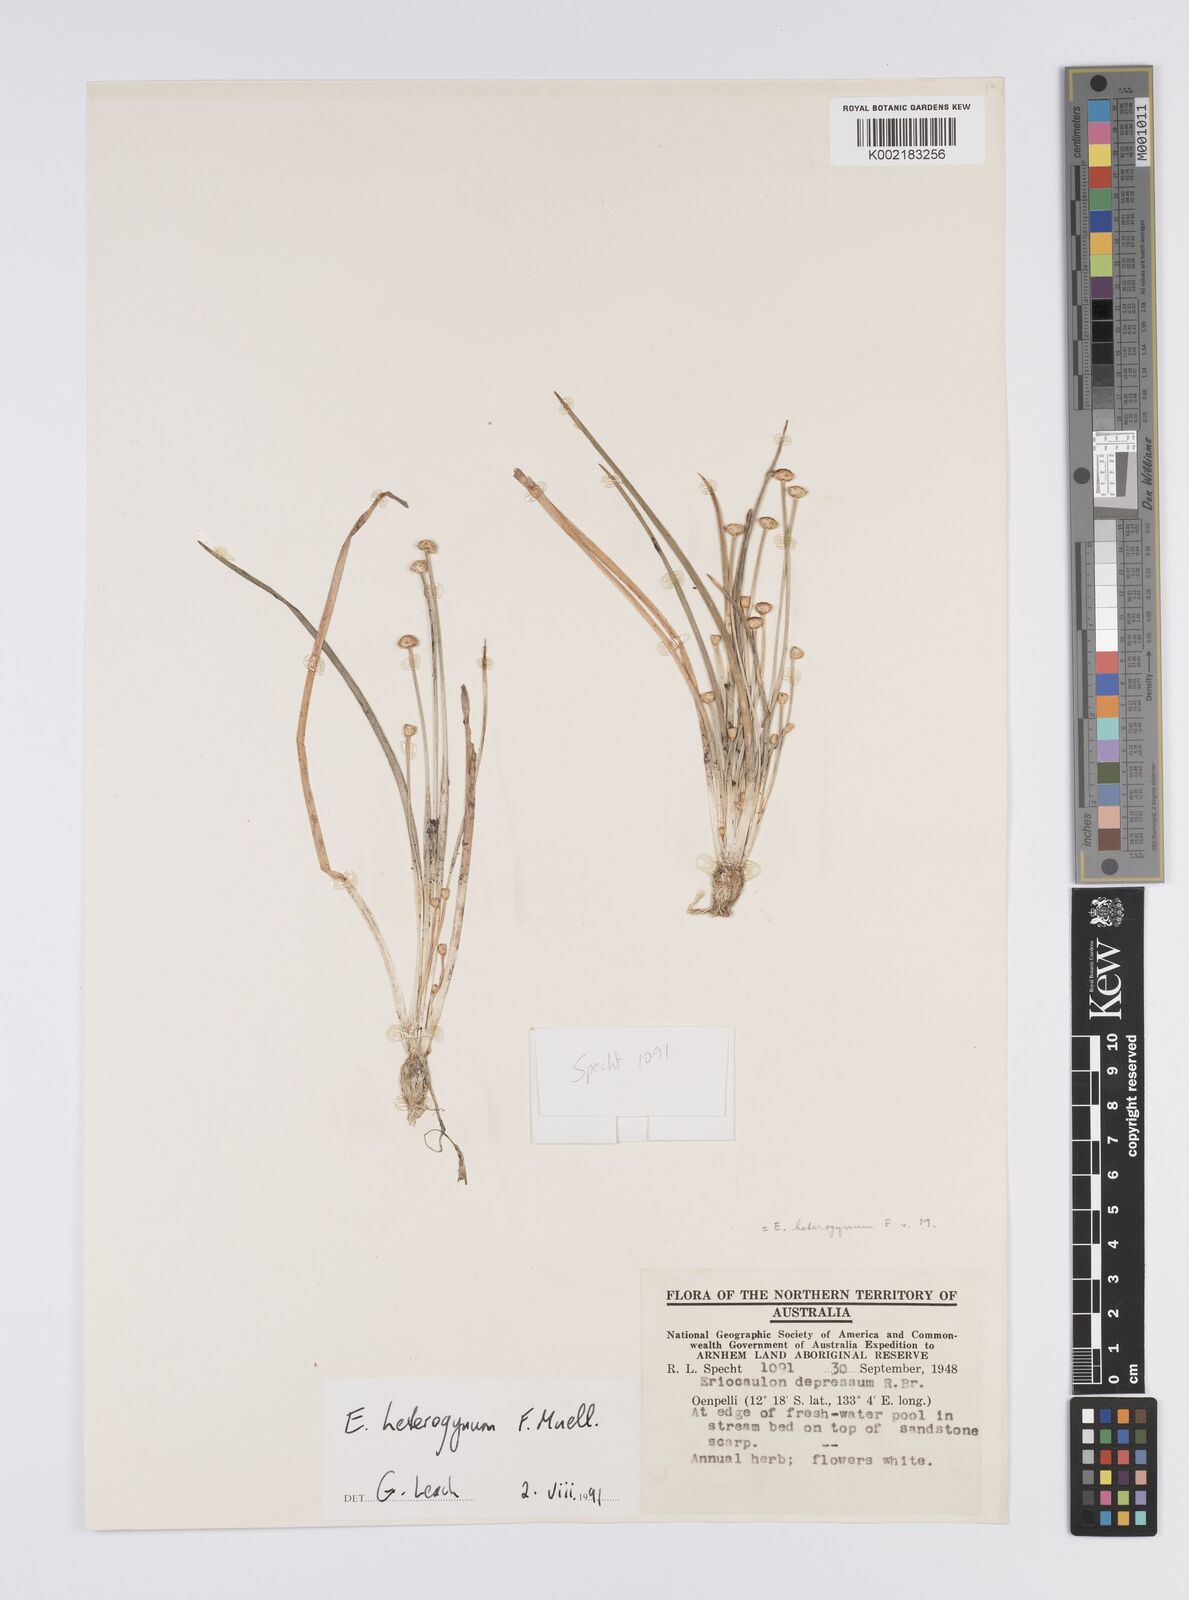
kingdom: Plantae
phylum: Tracheophyta
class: Liliopsida
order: Poales
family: Eriocaulaceae
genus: Eriocaulon
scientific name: Eriocaulon depressum
